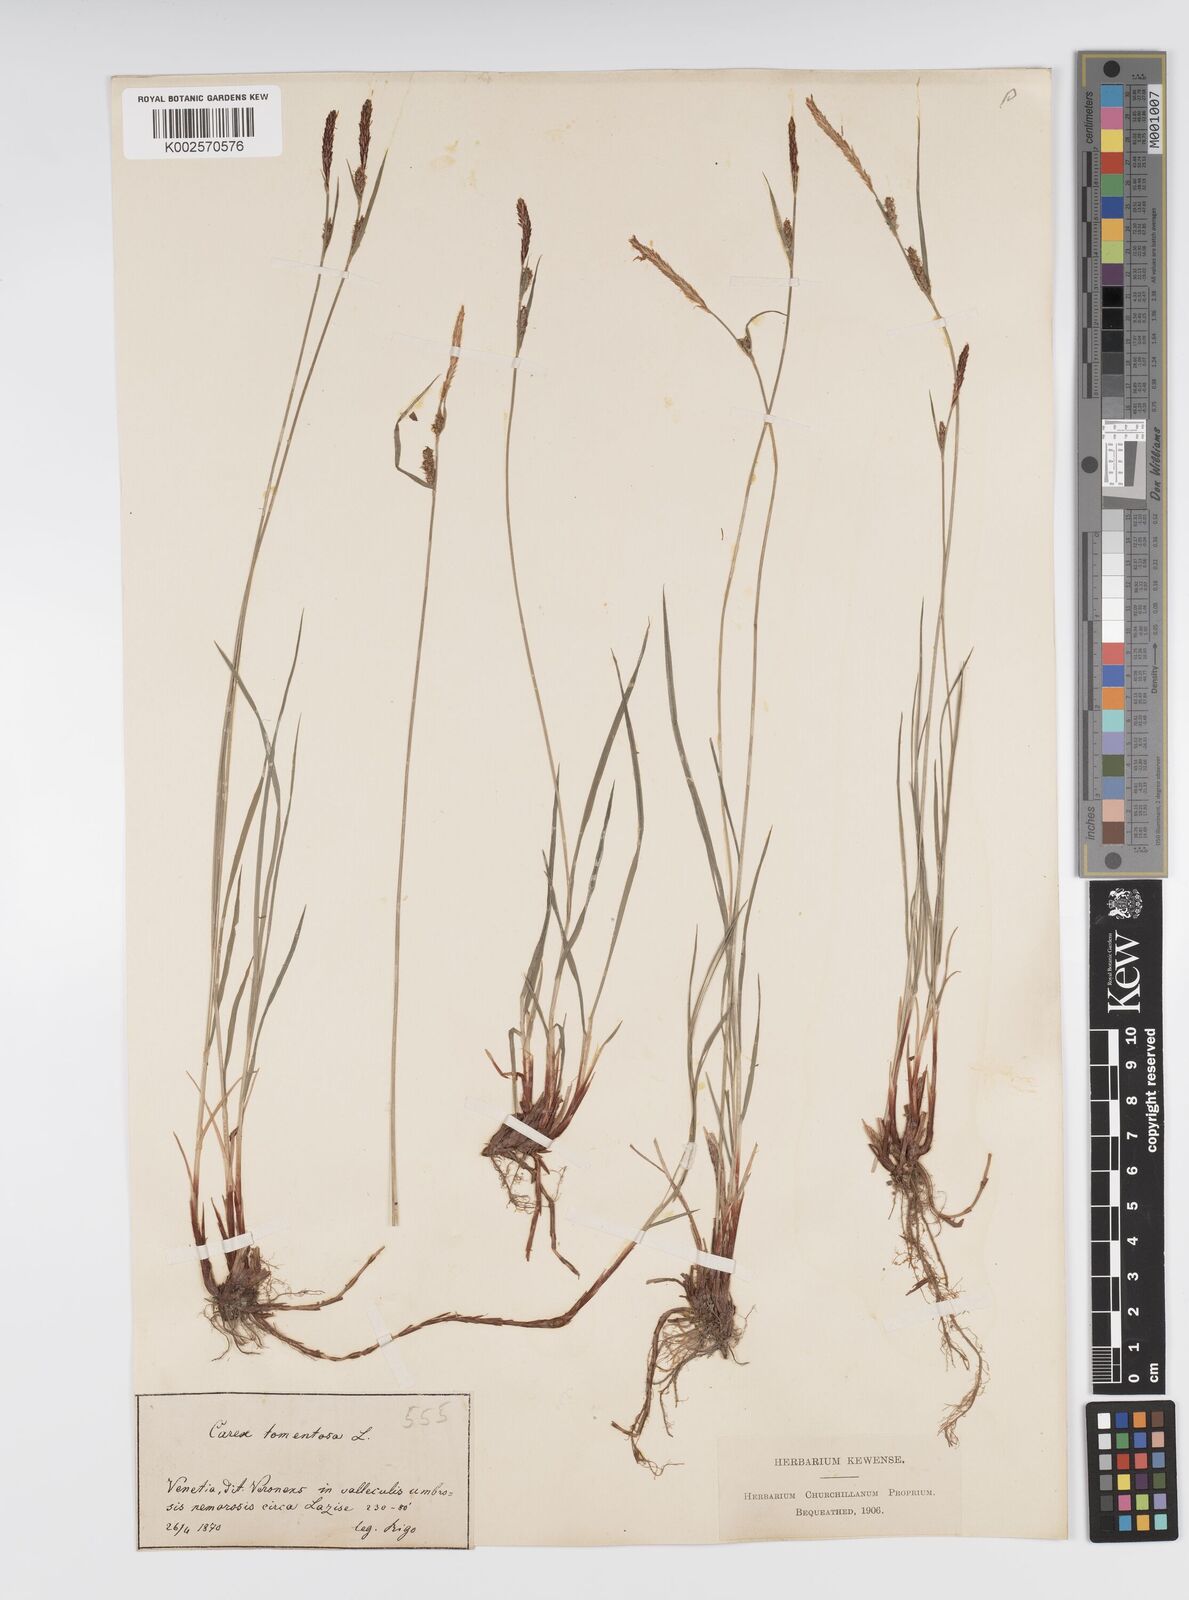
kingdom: Plantae
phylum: Tracheophyta
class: Liliopsida
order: Poales
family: Cyperaceae
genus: Carex
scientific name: Carex montana
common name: Soft-leaved sedge
